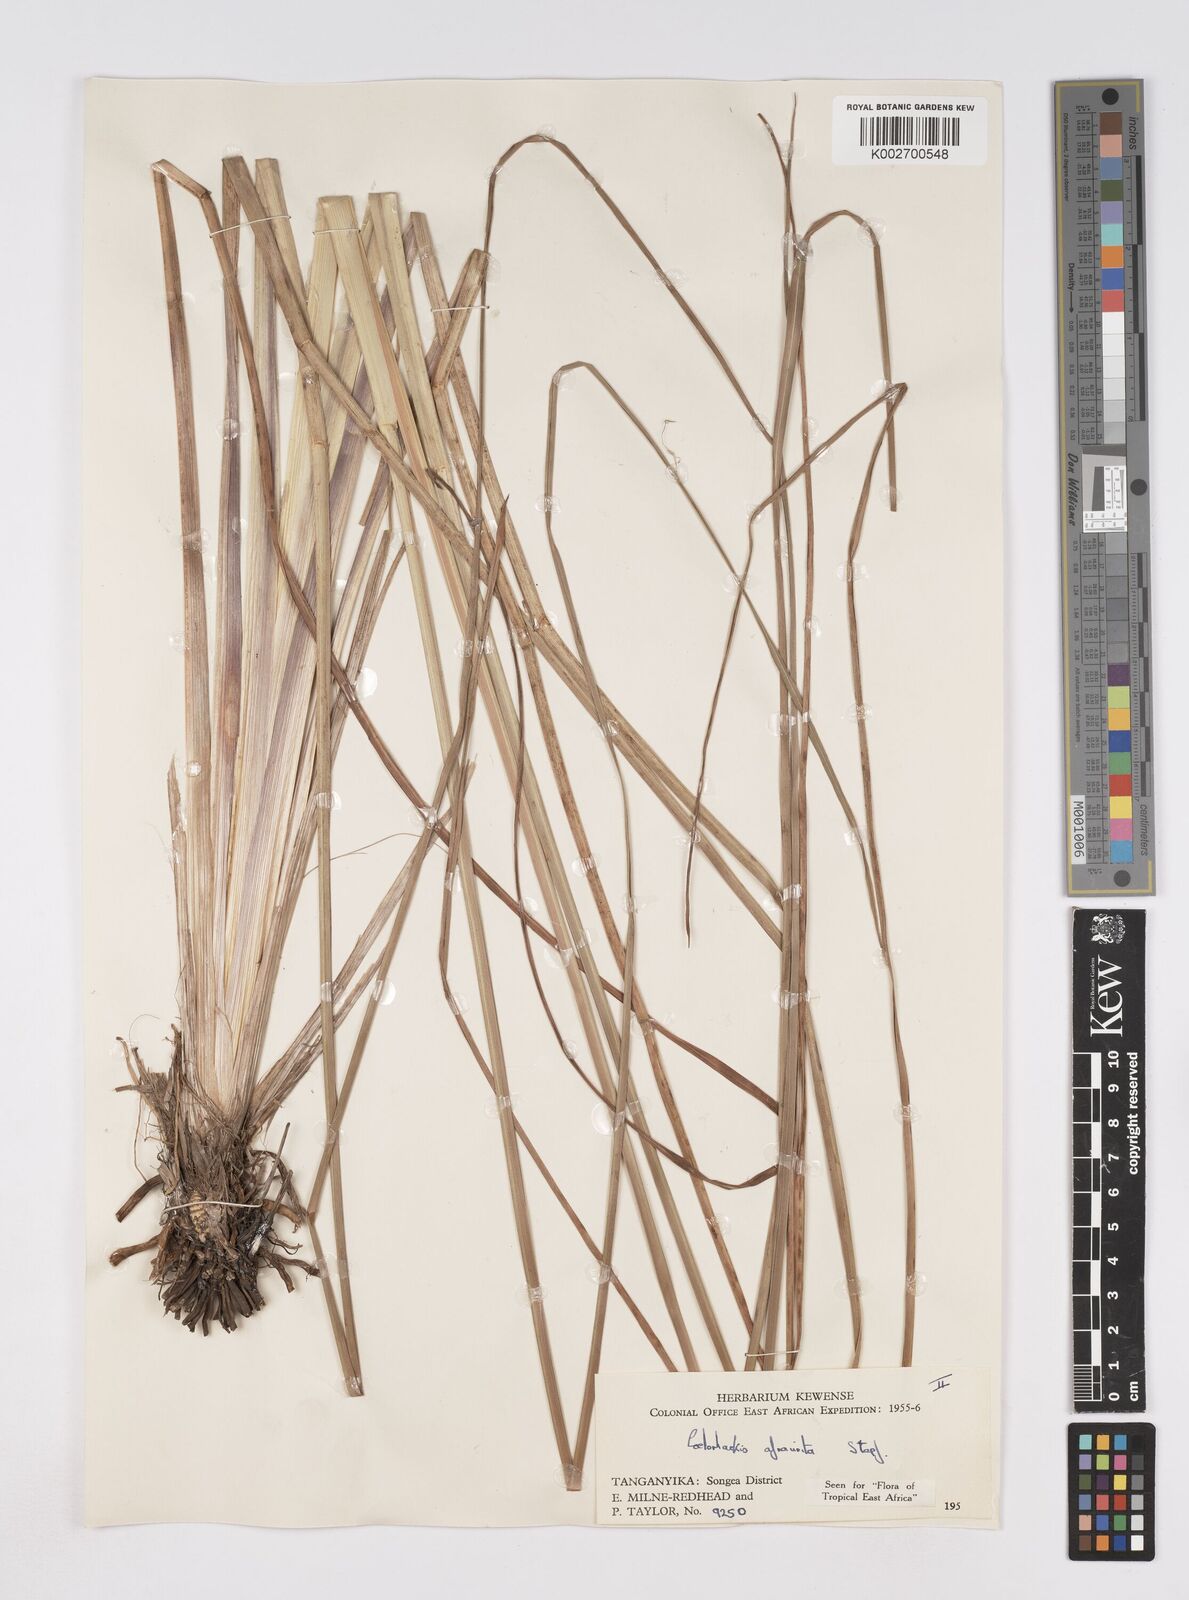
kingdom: Plantae
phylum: Tracheophyta
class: Liliopsida
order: Poales
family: Poaceae
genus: Rottboellia
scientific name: Rottboellia afraurita
